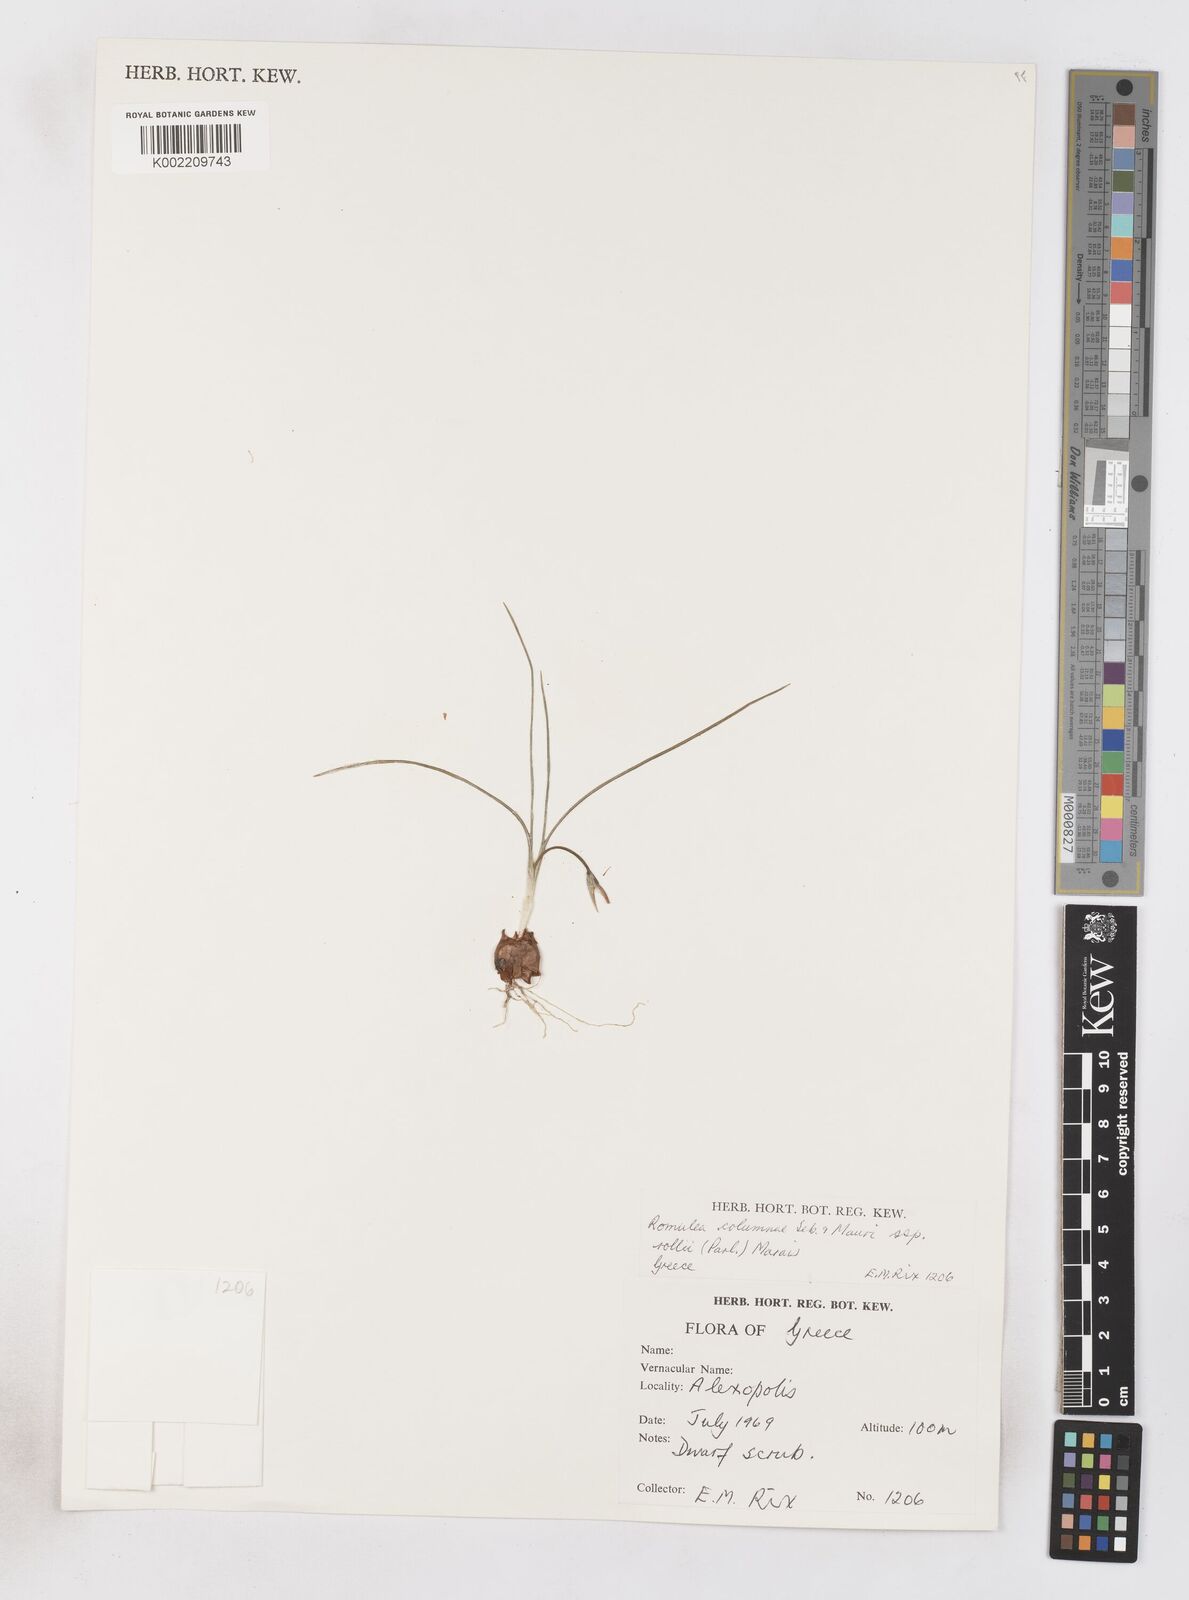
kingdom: Plantae
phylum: Tracheophyta
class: Liliopsida
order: Asparagales
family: Iridaceae
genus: Romulea
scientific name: Romulea columnae
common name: Sand-crocus
